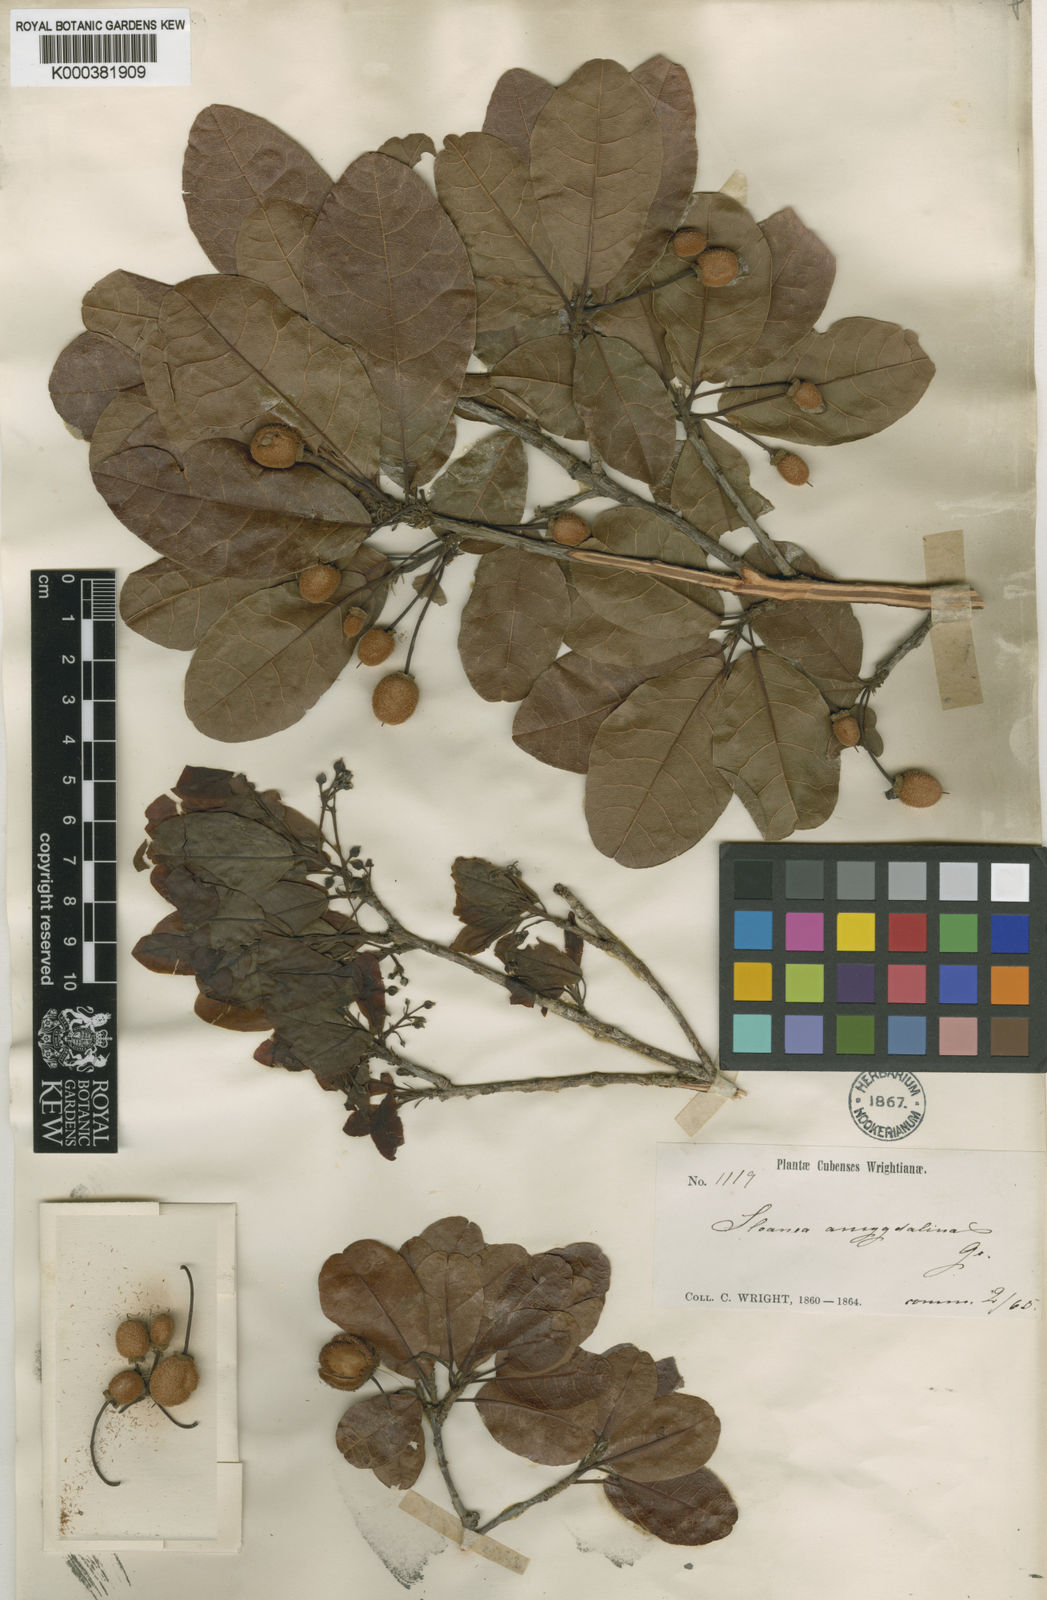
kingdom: Plantae
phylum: Tracheophyta
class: Magnoliopsida
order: Oxalidales
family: Elaeocarpaceae
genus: Sloanea
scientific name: Sloanea amygdalina
